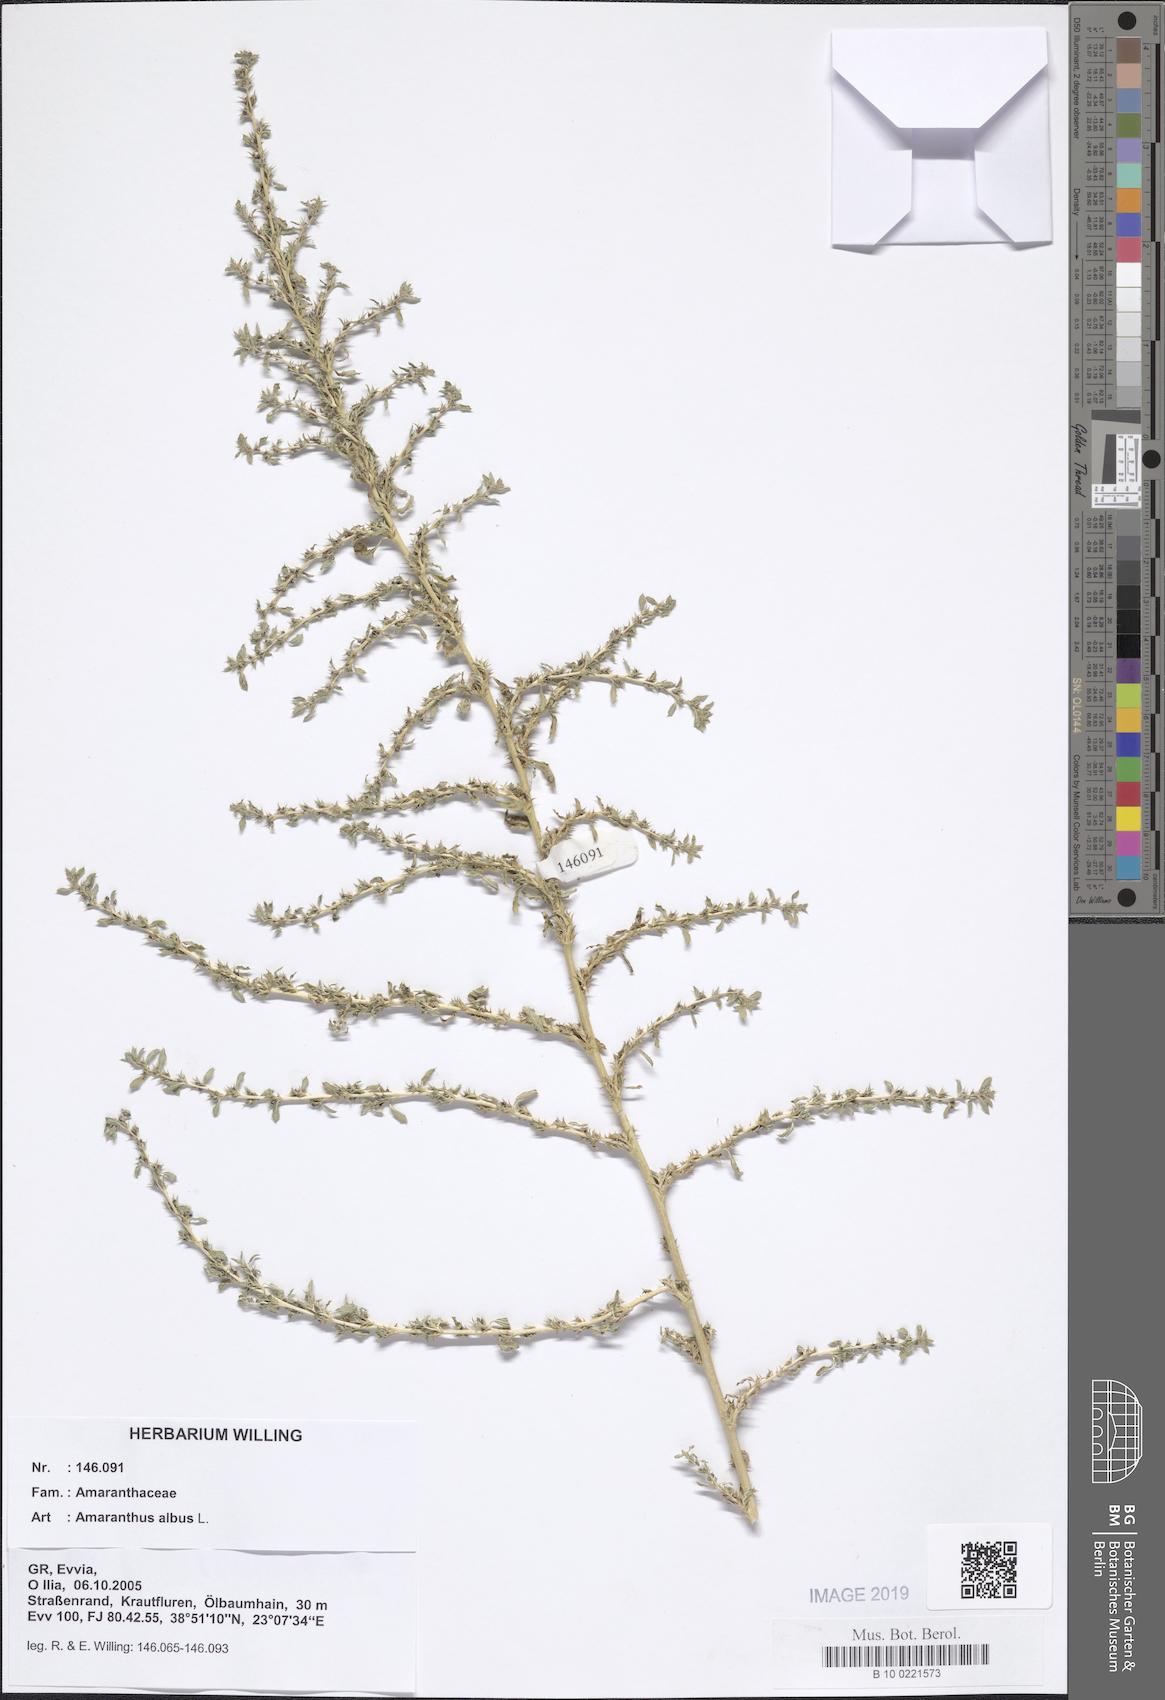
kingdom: Plantae
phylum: Tracheophyta
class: Magnoliopsida
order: Caryophyllales
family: Amaranthaceae
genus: Amaranthus
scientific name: Amaranthus albus
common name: White pigweed
